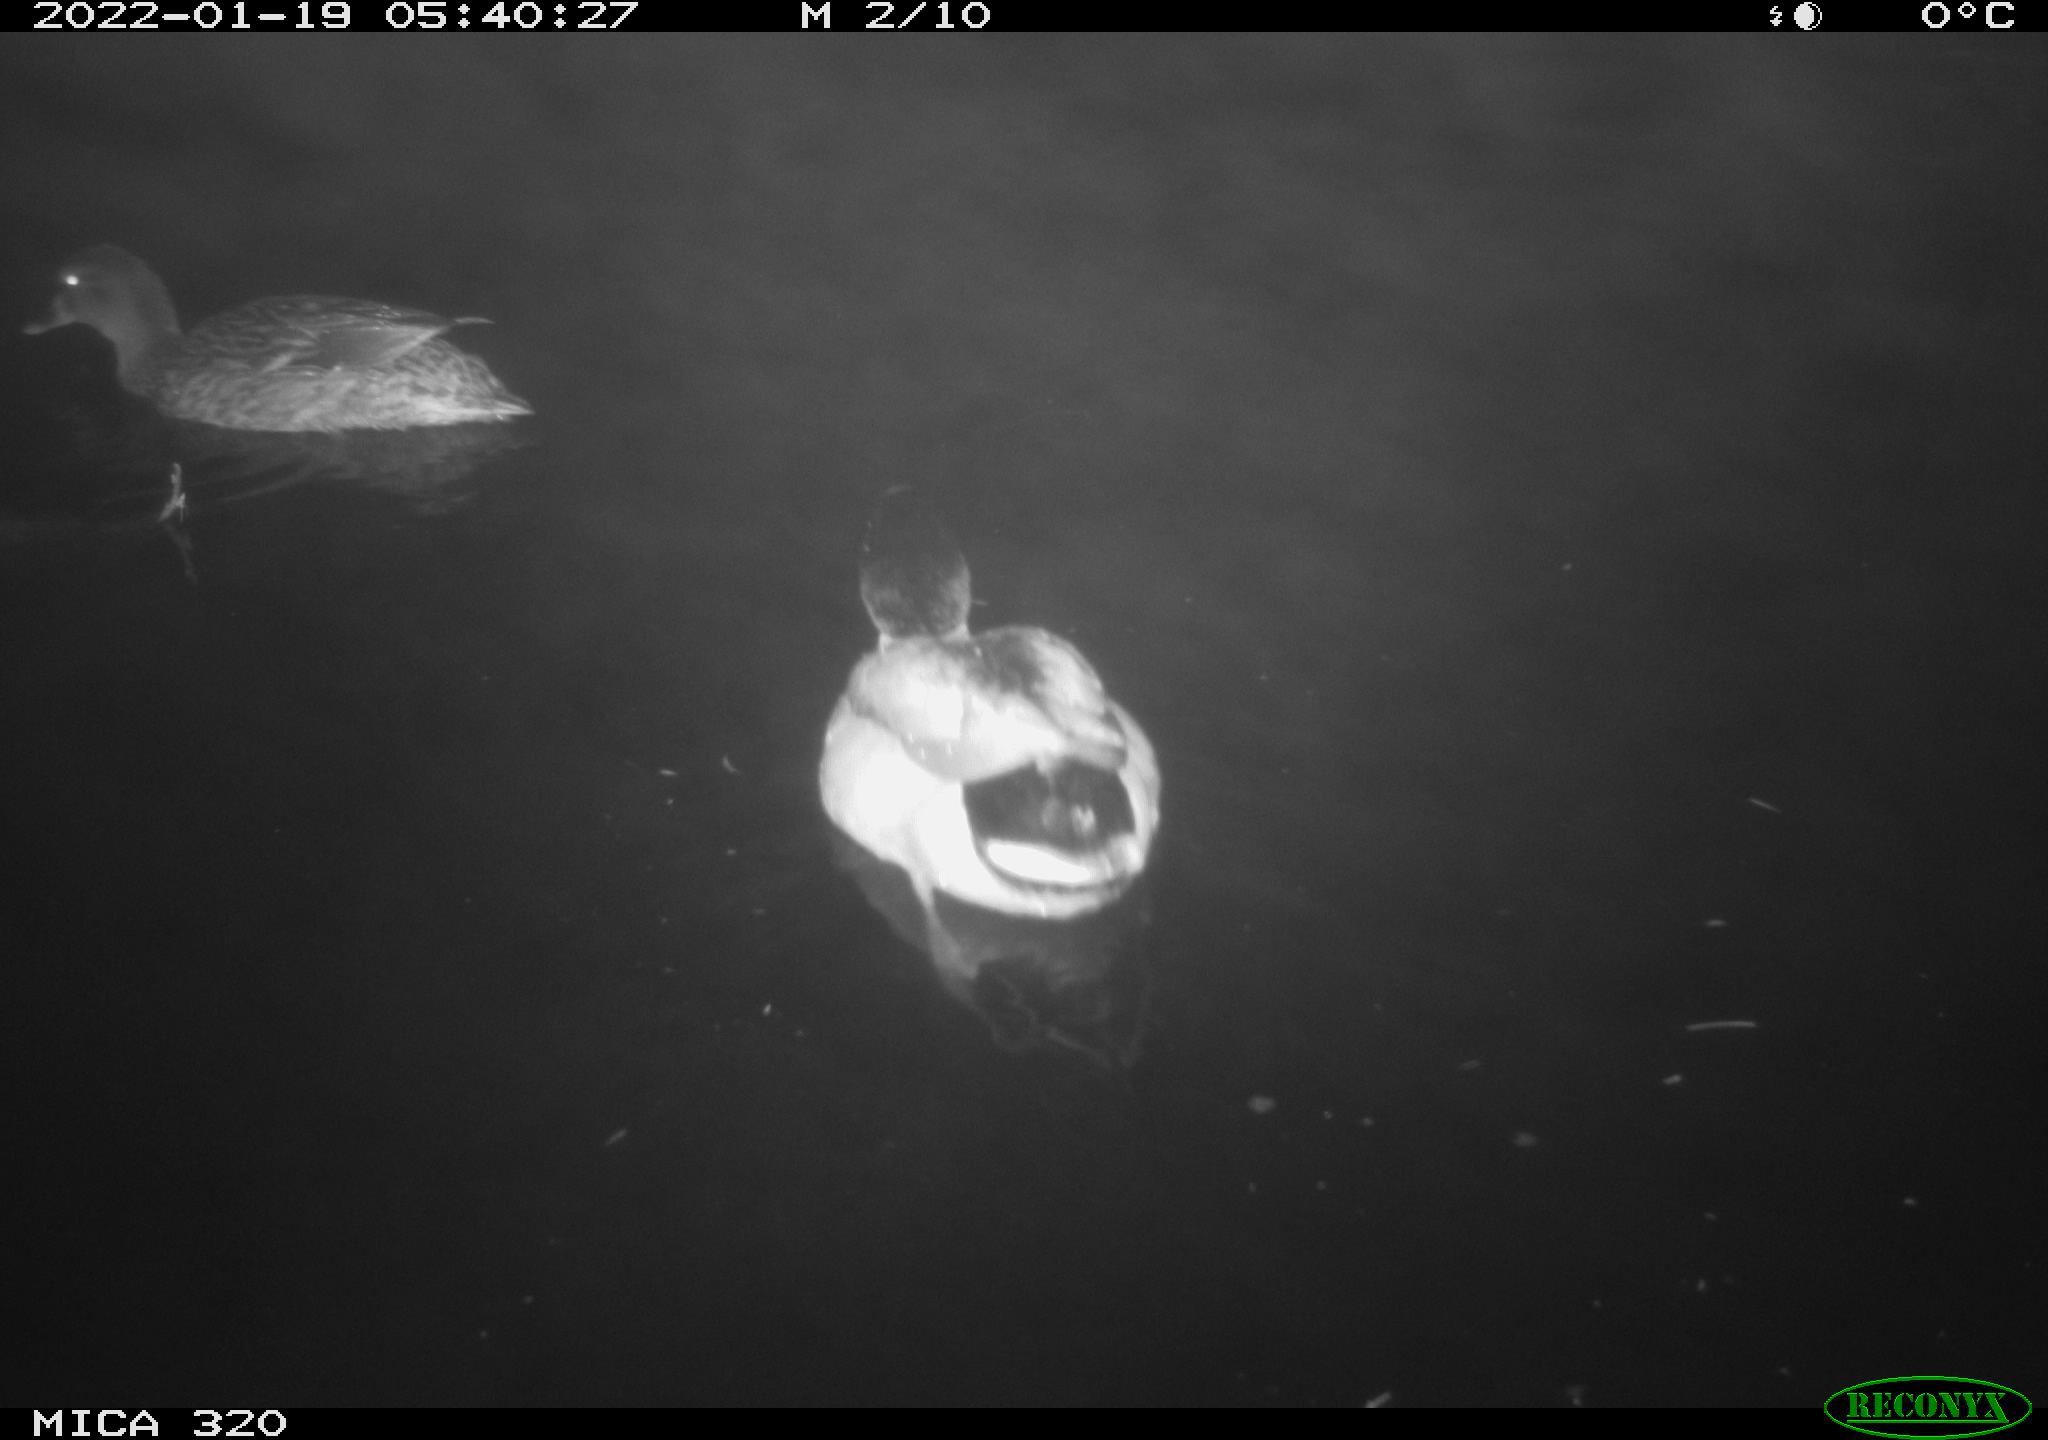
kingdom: Animalia
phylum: Chordata
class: Aves
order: Anseriformes
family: Anatidae
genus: Anas
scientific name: Anas
